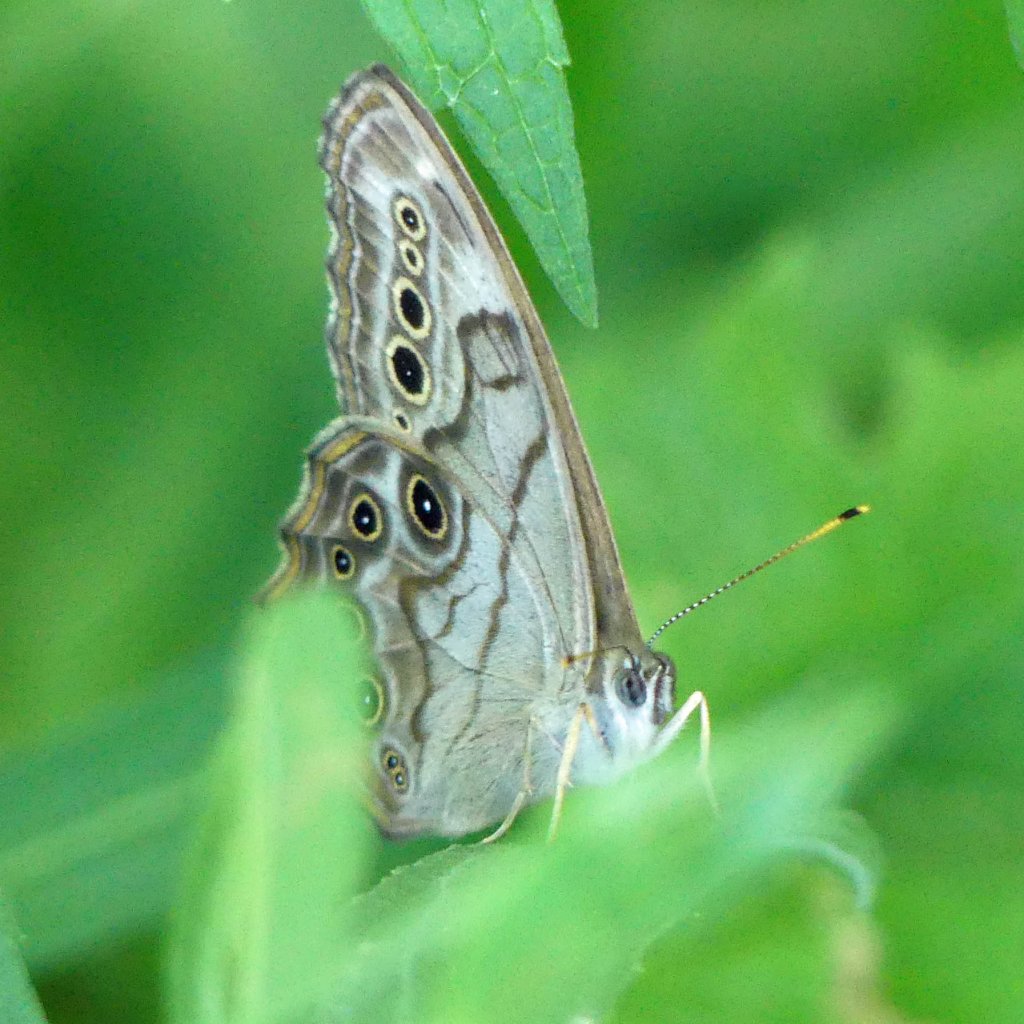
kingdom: Animalia
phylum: Arthropoda
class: Insecta
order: Lepidoptera
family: Nymphalidae
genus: Lethe
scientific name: Lethe anthedon
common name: Northern Pearly-Eye
